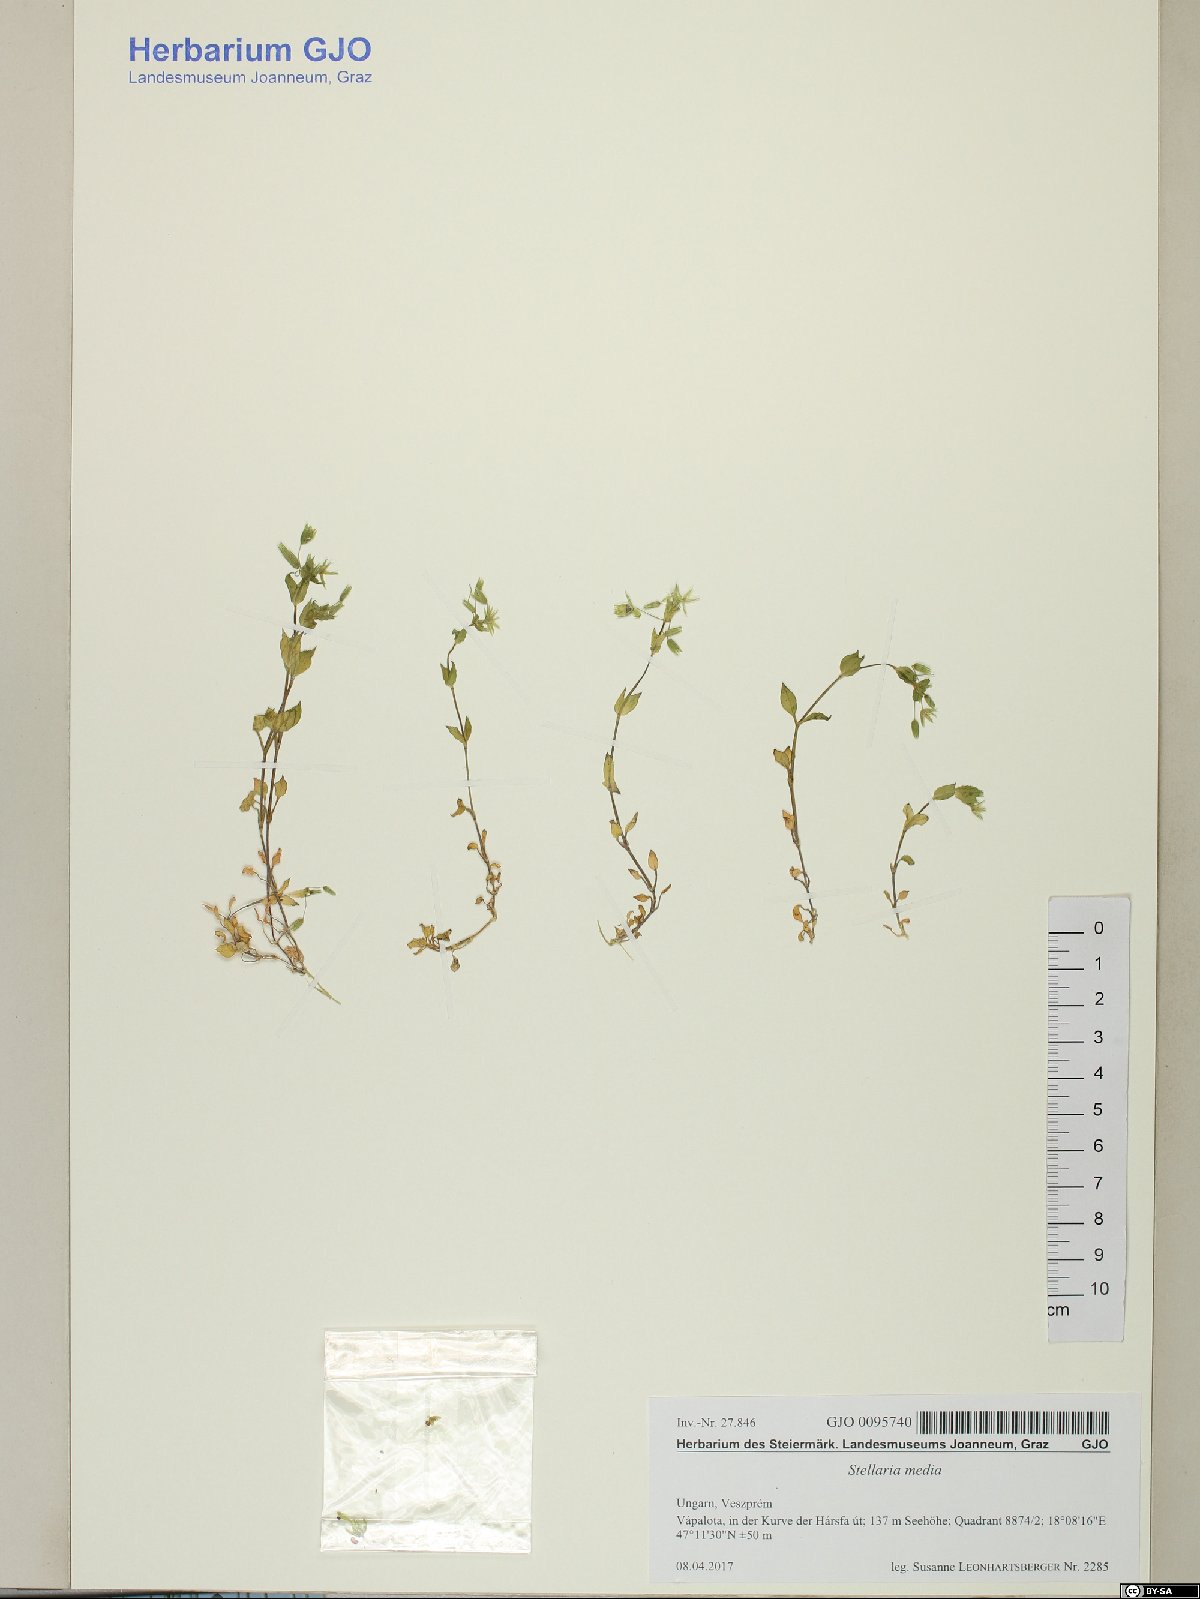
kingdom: Plantae
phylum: Tracheophyta
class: Magnoliopsida
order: Caryophyllales
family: Caryophyllaceae
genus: Stellaria
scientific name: Stellaria media
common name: Common chickweed
